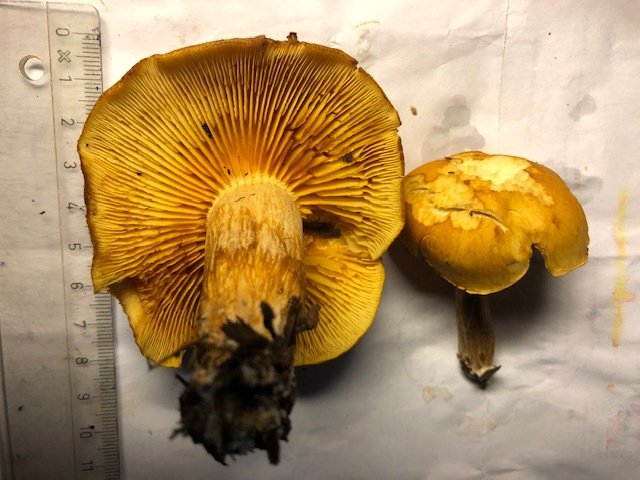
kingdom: Fungi
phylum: Basidiomycota
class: Agaricomycetes
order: Agaricales
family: Hymenogastraceae
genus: Gymnopilus
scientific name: Gymnopilus penetrans
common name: plettet flammehat
